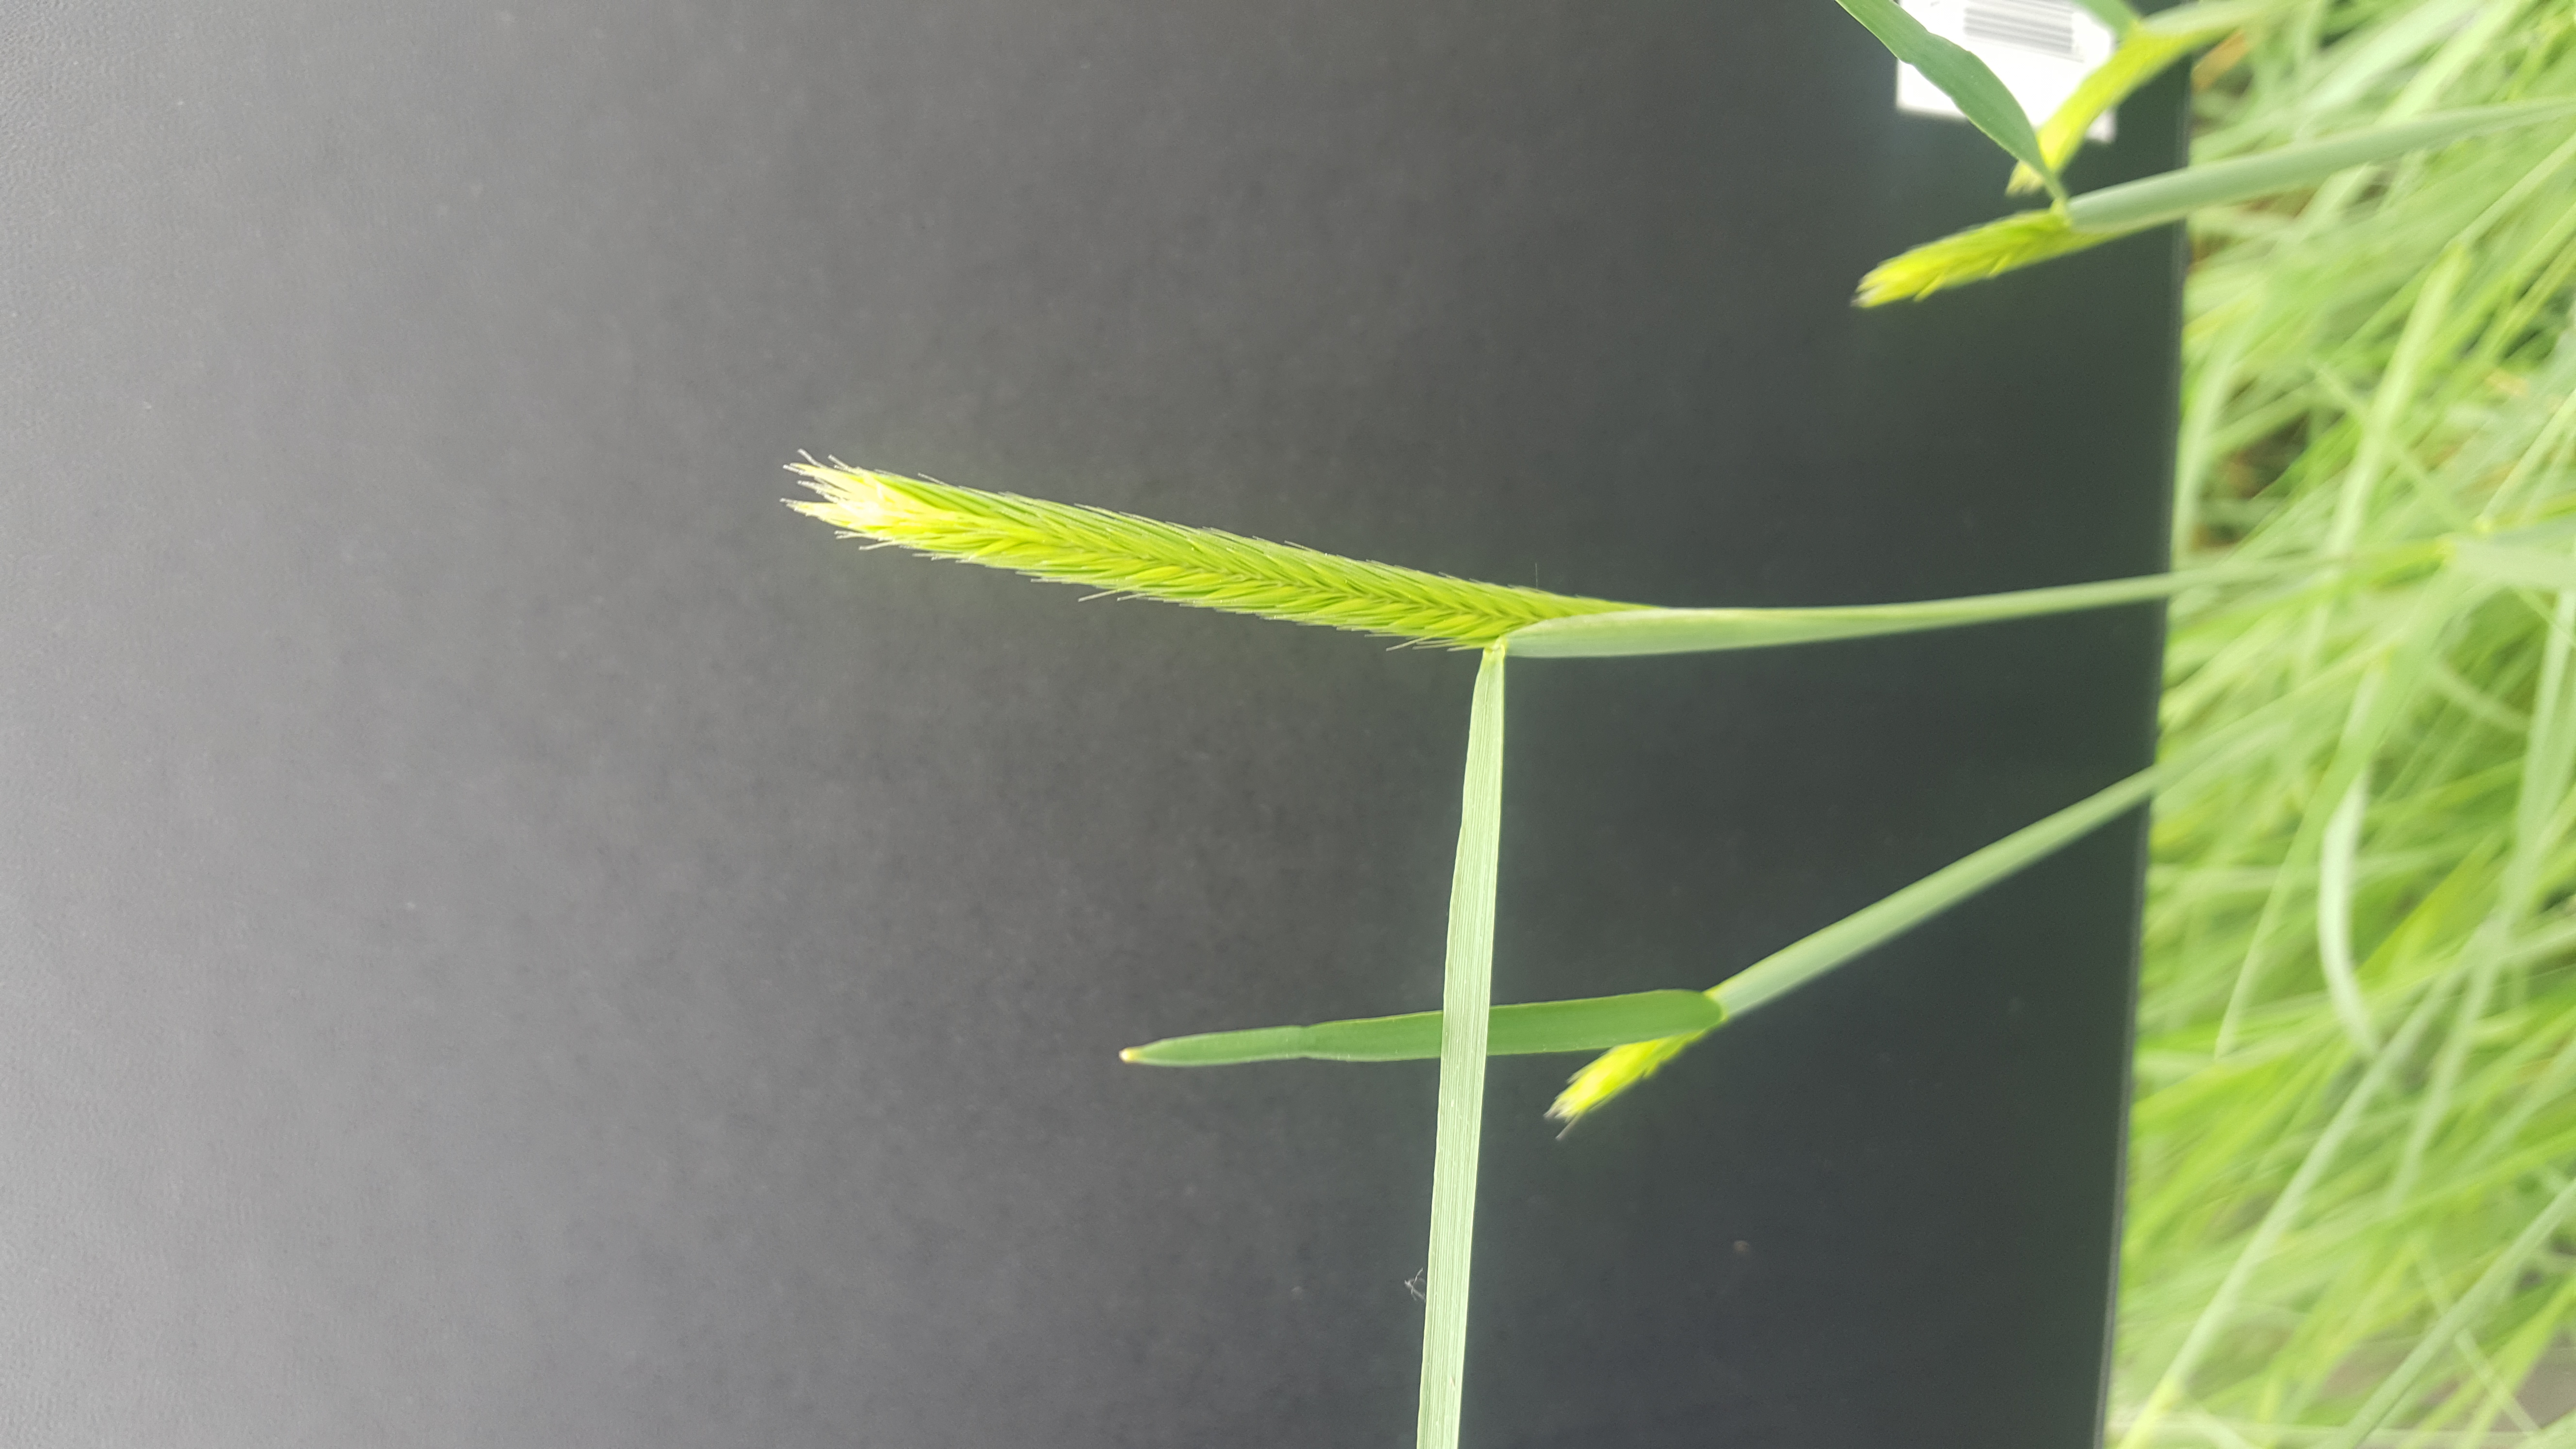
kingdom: Plantae
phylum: Tracheophyta
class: Liliopsida
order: Poales
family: Poaceae
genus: Hordeum
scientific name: Hordeum patagonicum
